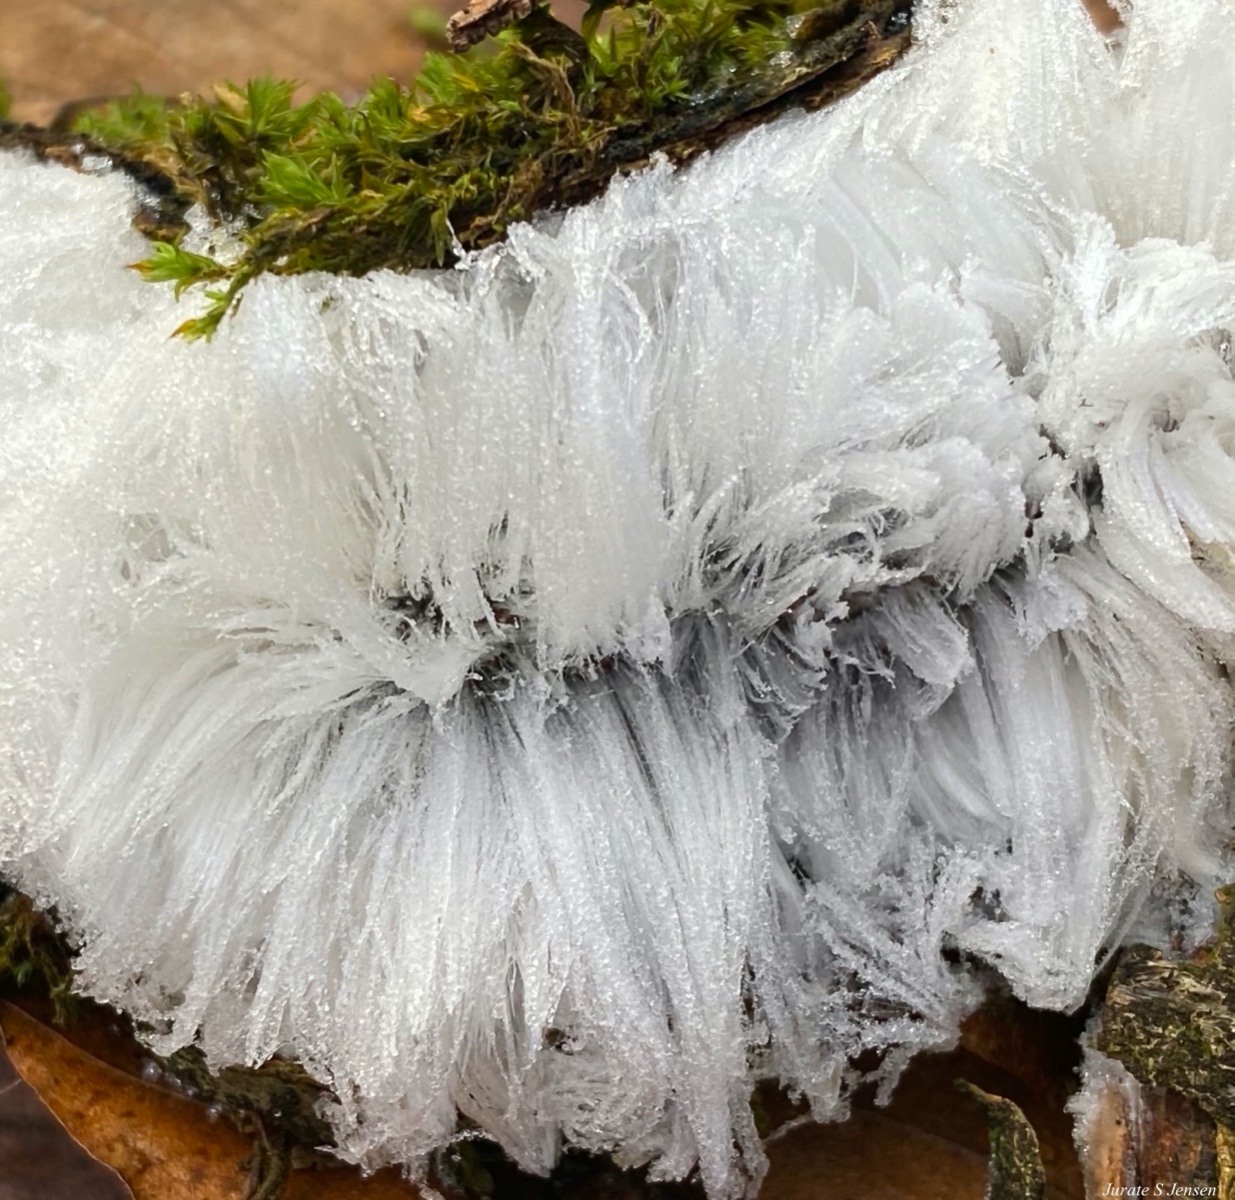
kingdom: Fungi
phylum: Basidiomycota
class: Tremellomycetes
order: Tremellales
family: Exidiaceae
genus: Exidiopsis
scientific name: Exidiopsis effusa
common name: smuk bævrehinde
